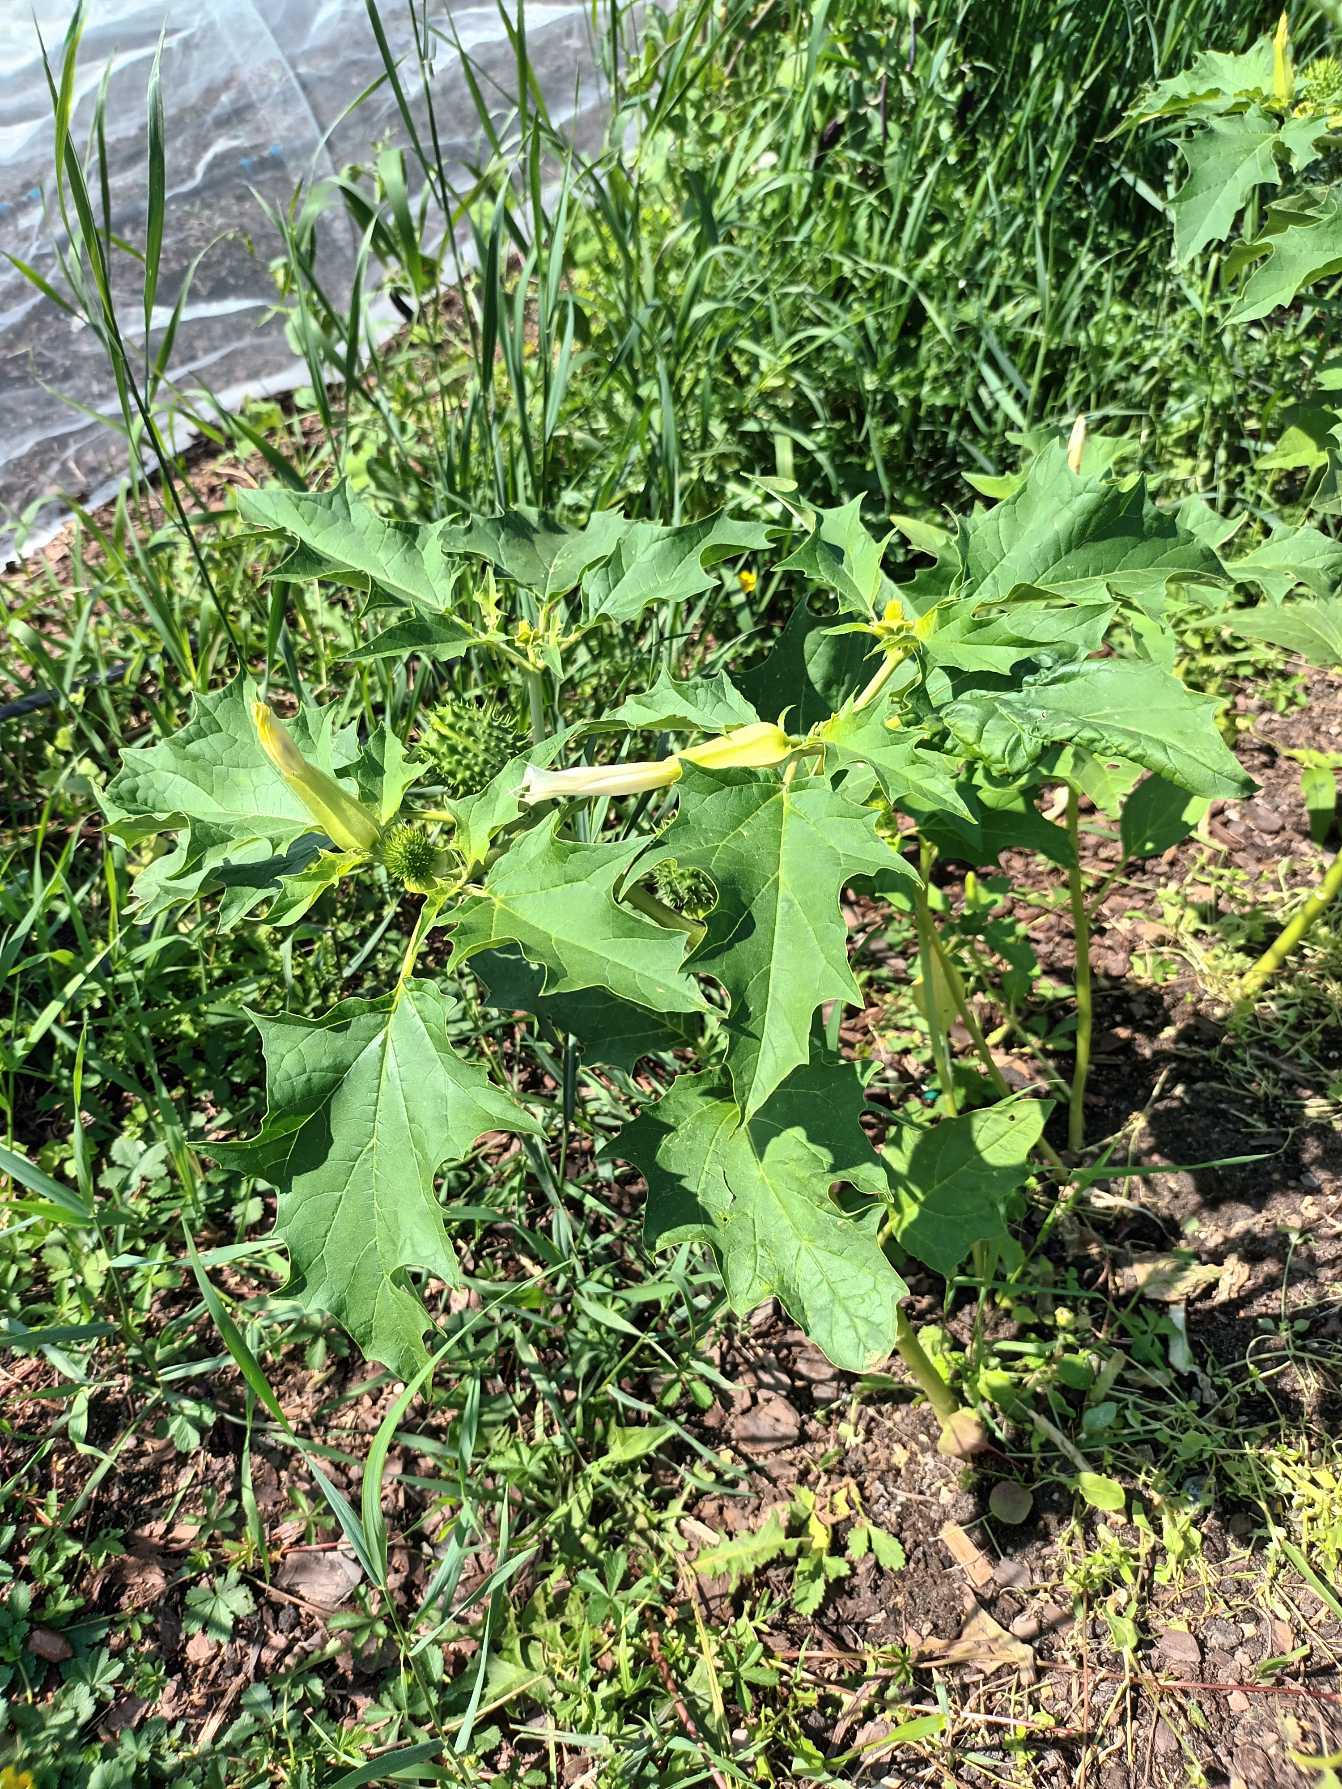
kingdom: Plantae
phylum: Tracheophyta
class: Magnoliopsida
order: Solanales
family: Solanaceae
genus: Datura
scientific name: Datura stramonium
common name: Pigæble
